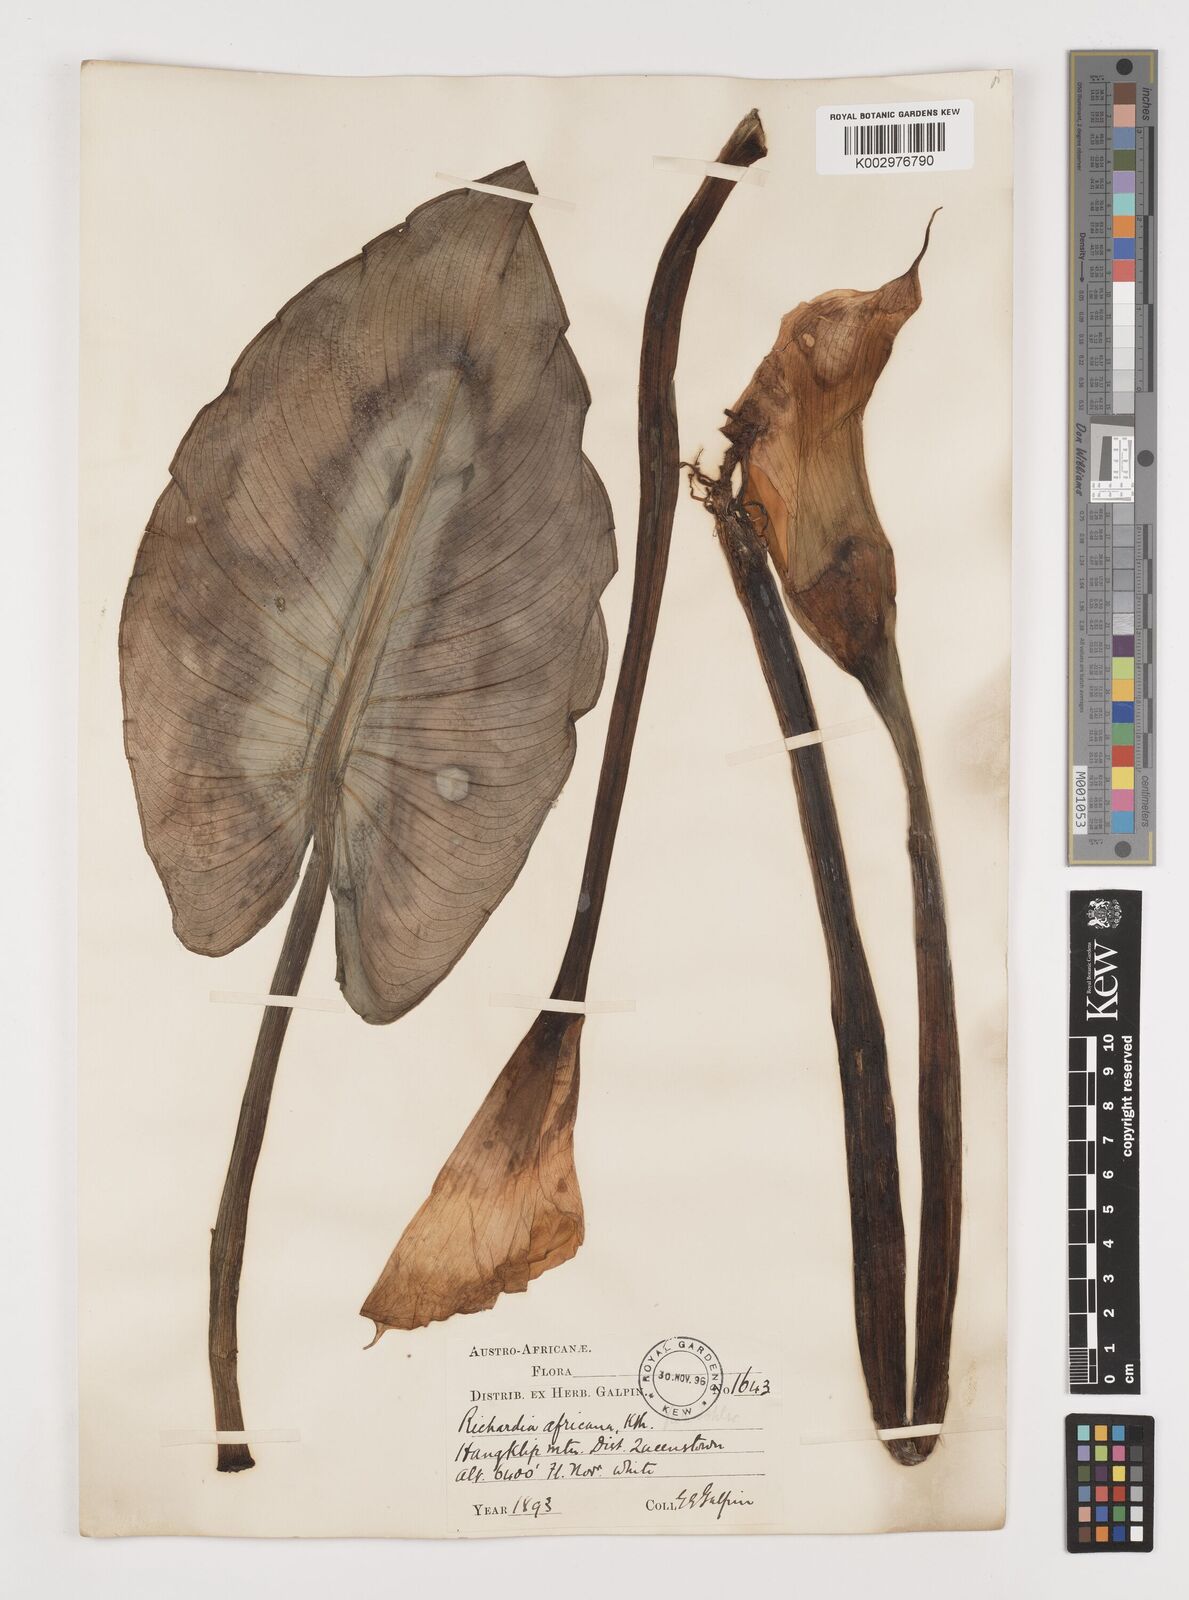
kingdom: Plantae
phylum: Tracheophyta
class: Liliopsida
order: Alismatales
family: Araceae
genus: Zantedeschia
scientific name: Zantedeschia aethiopica
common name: Altar-lily
